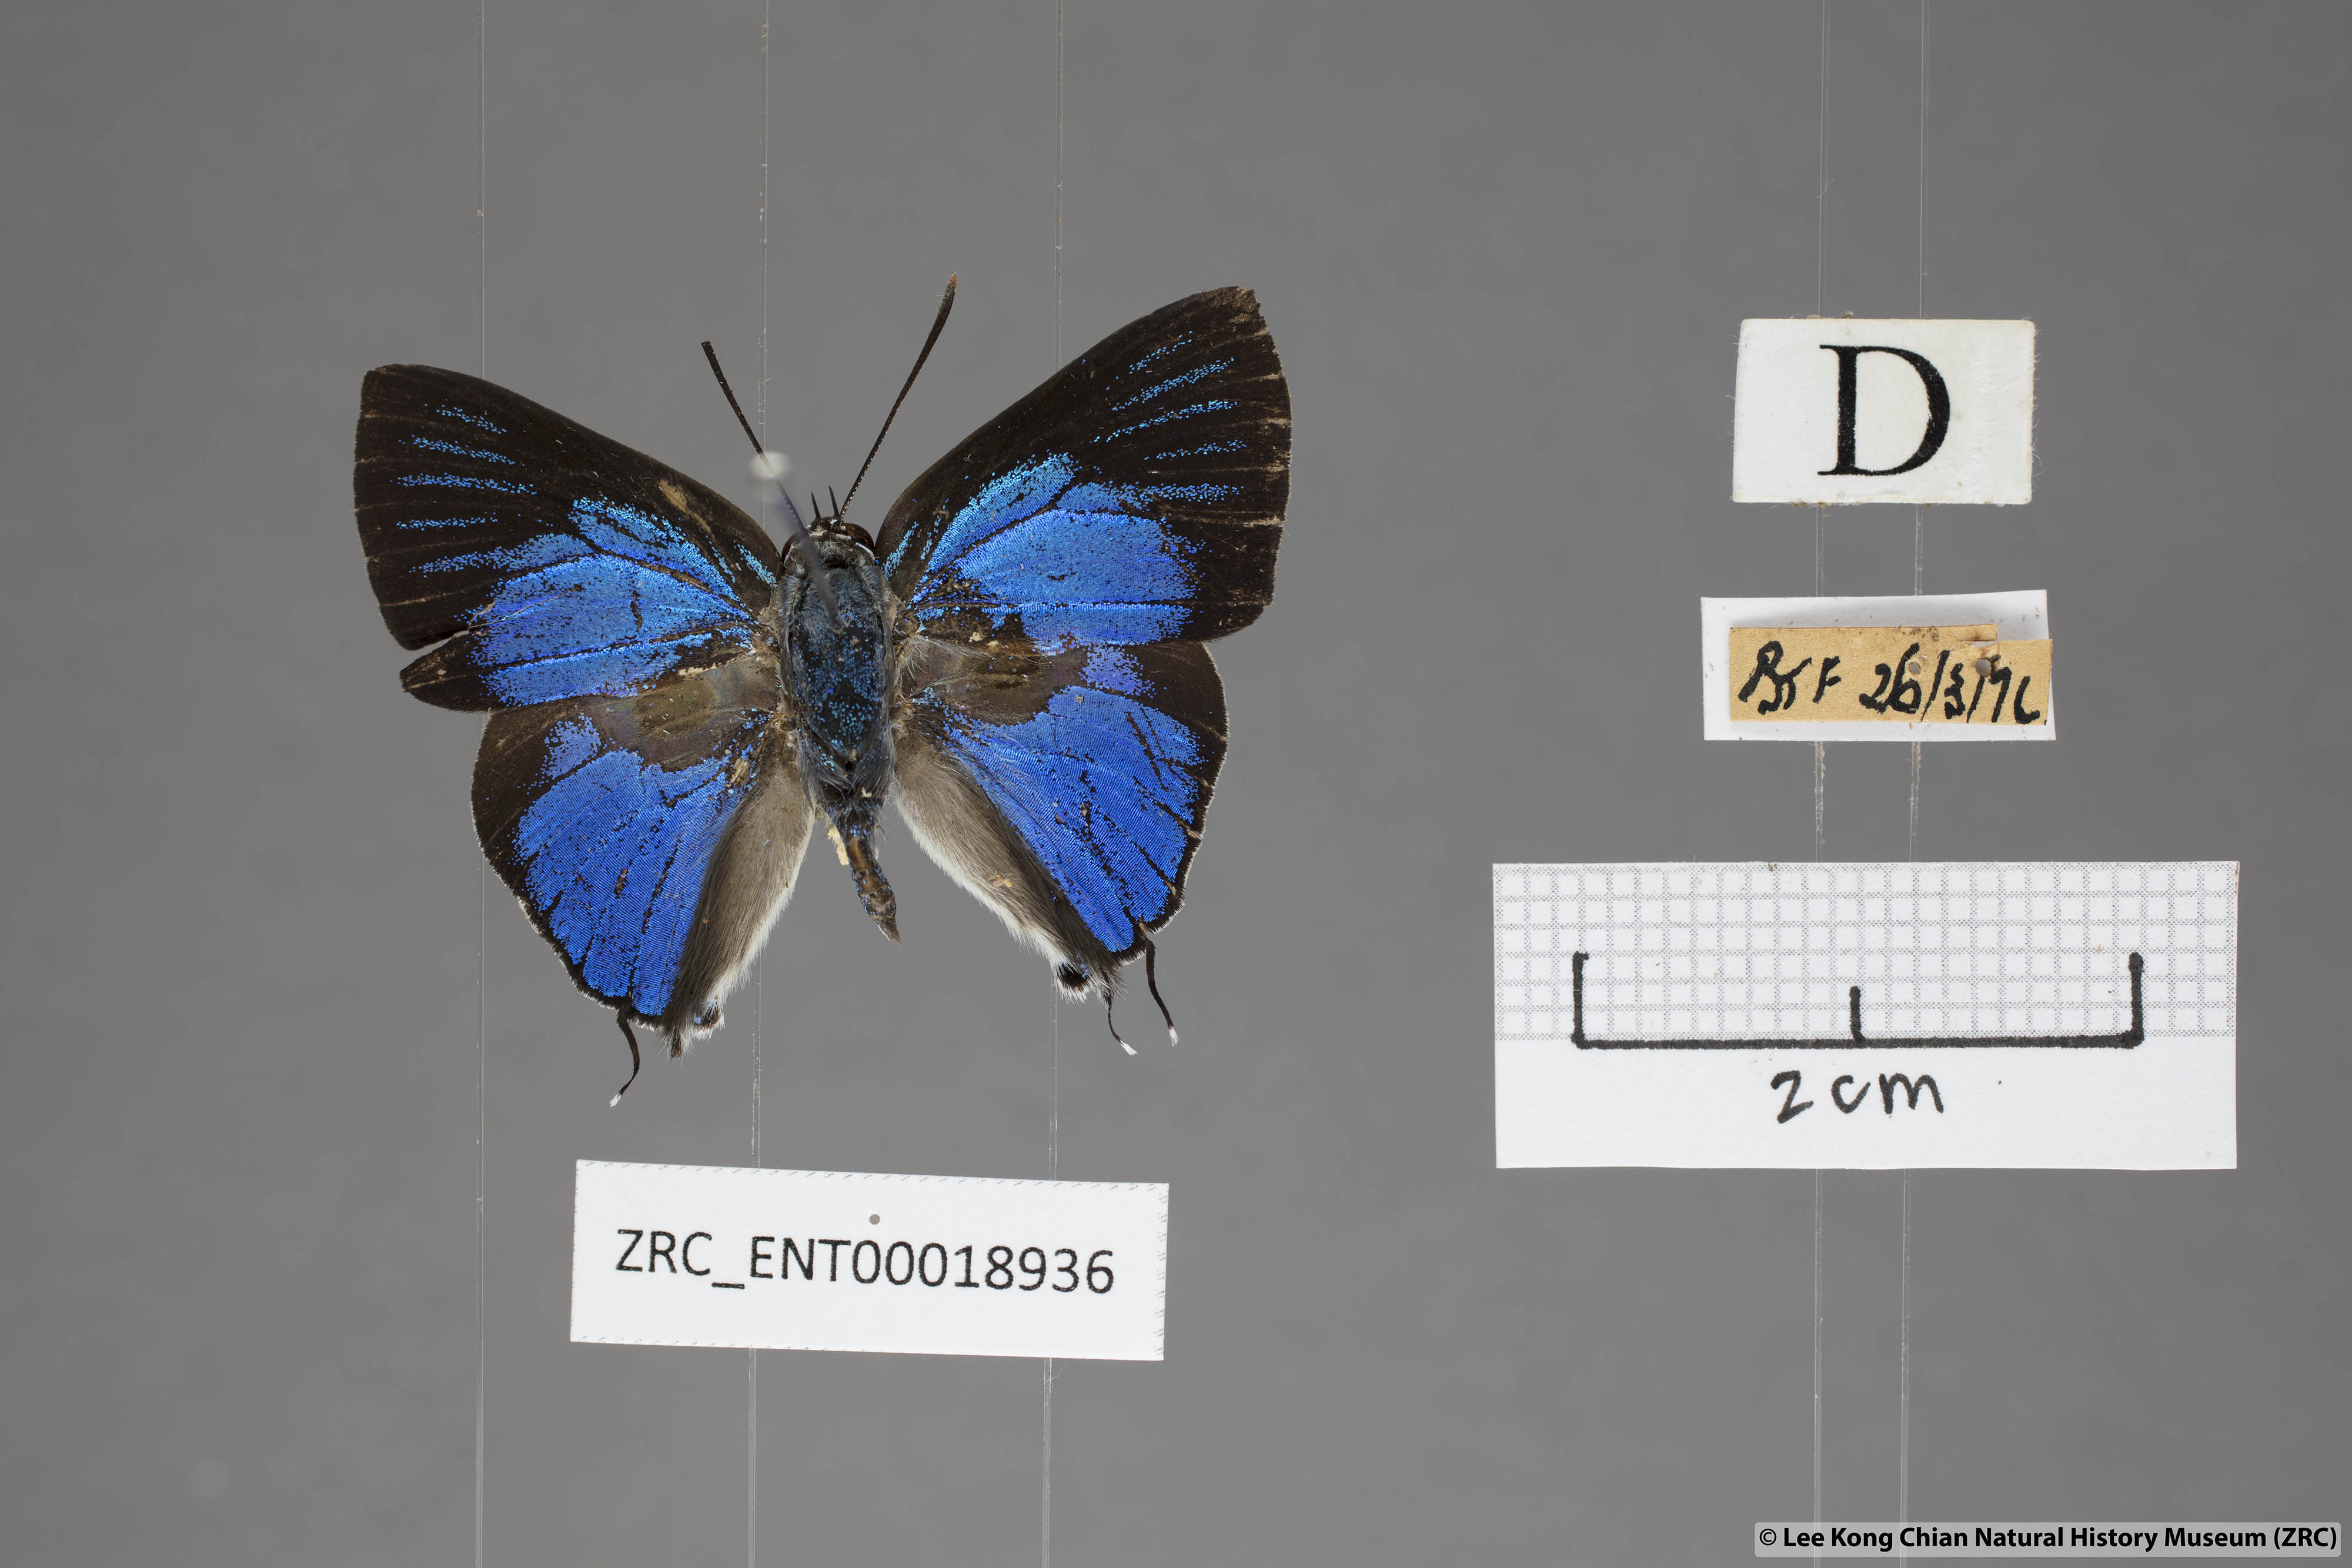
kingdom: Animalia
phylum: Arthropoda
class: Insecta
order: Lepidoptera
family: Lycaenidae
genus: Ancema
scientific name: Ancema blanka
